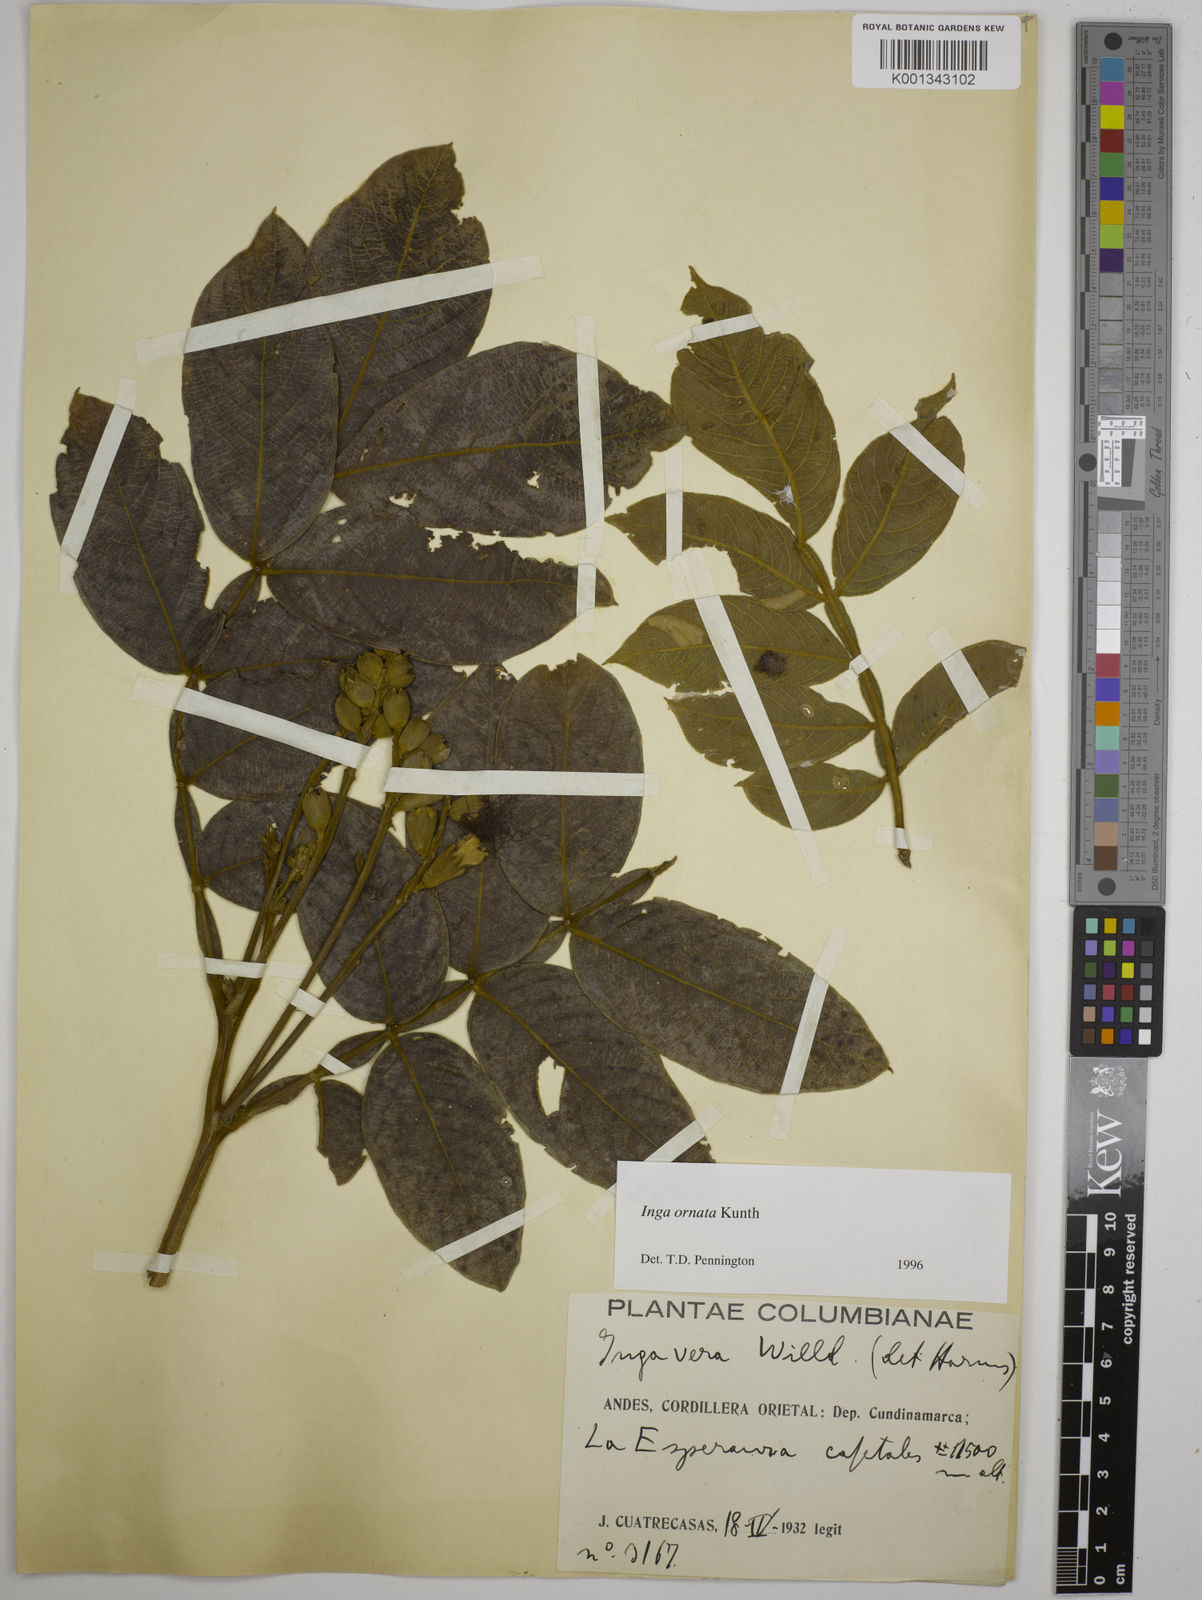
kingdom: Plantae
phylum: Tracheophyta
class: Magnoliopsida
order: Fabales
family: Fabaceae
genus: Inga
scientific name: Inga ornata
